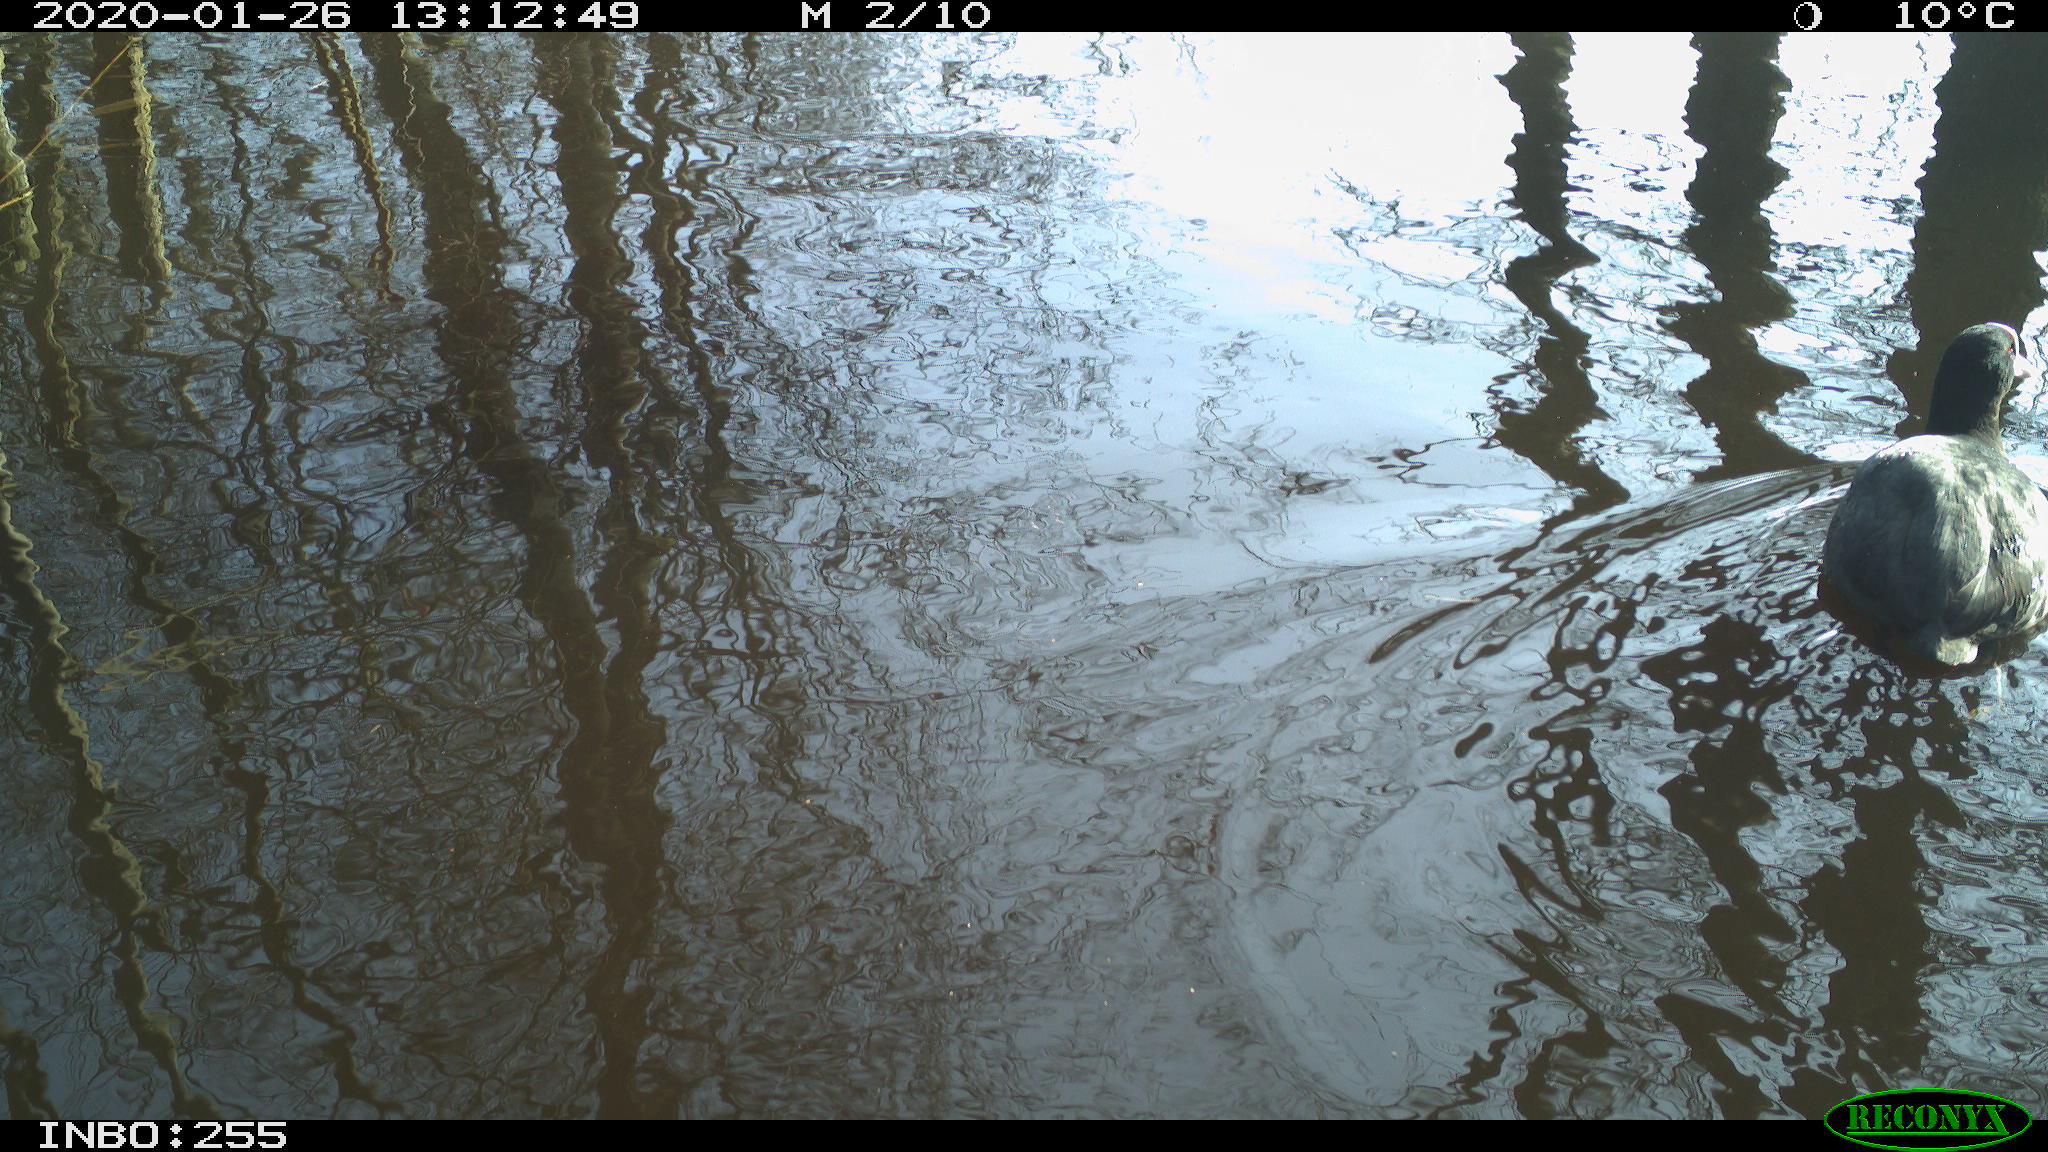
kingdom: Animalia
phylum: Chordata
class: Aves
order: Gruiformes
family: Rallidae
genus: Fulica
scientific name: Fulica atra
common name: Eurasian coot
